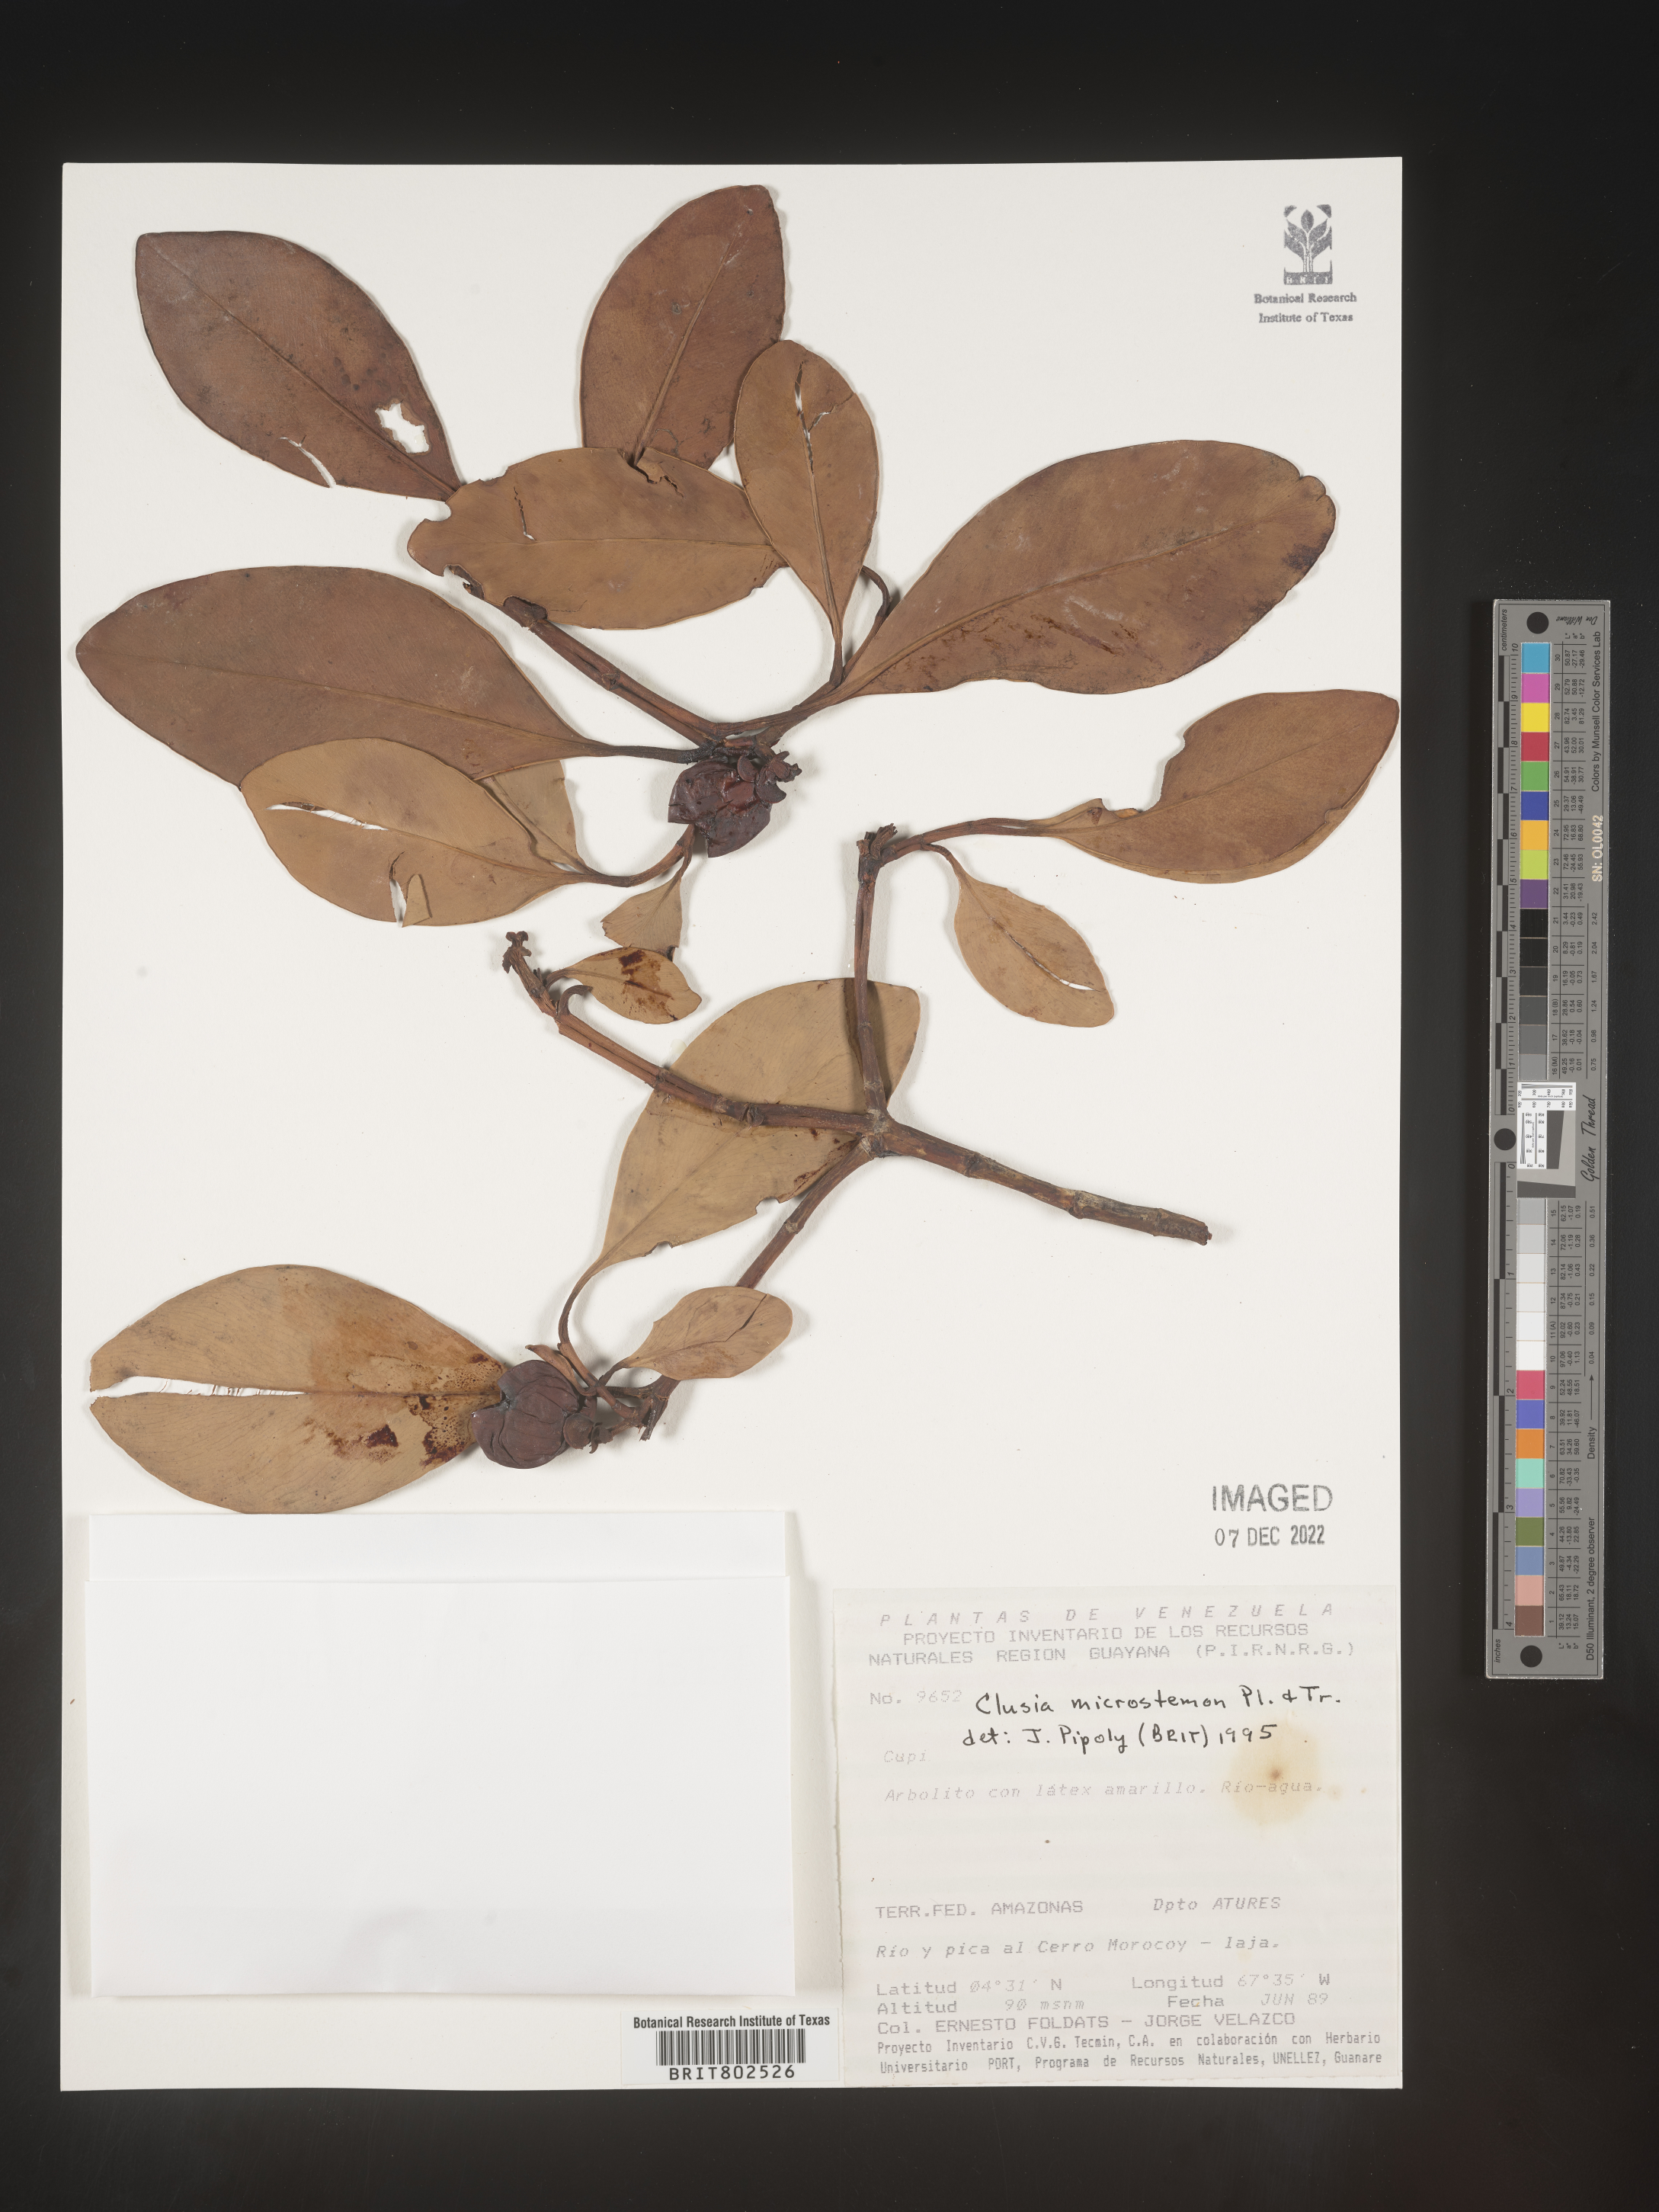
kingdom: Plantae
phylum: Tracheophyta
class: Magnoliopsida
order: Malpighiales
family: Clusiaceae
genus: Clusia
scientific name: Clusia microstemon
